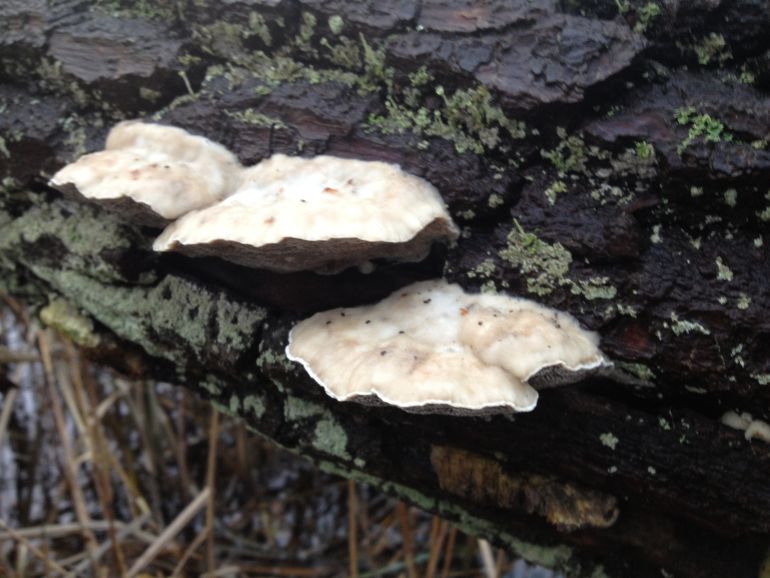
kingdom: Fungi
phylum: Basidiomycota
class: Agaricomycetes
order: Polyporales
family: Polyporaceae
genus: Trametes
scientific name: Trametes suaveolens
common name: vellugtende læderporesvamp
